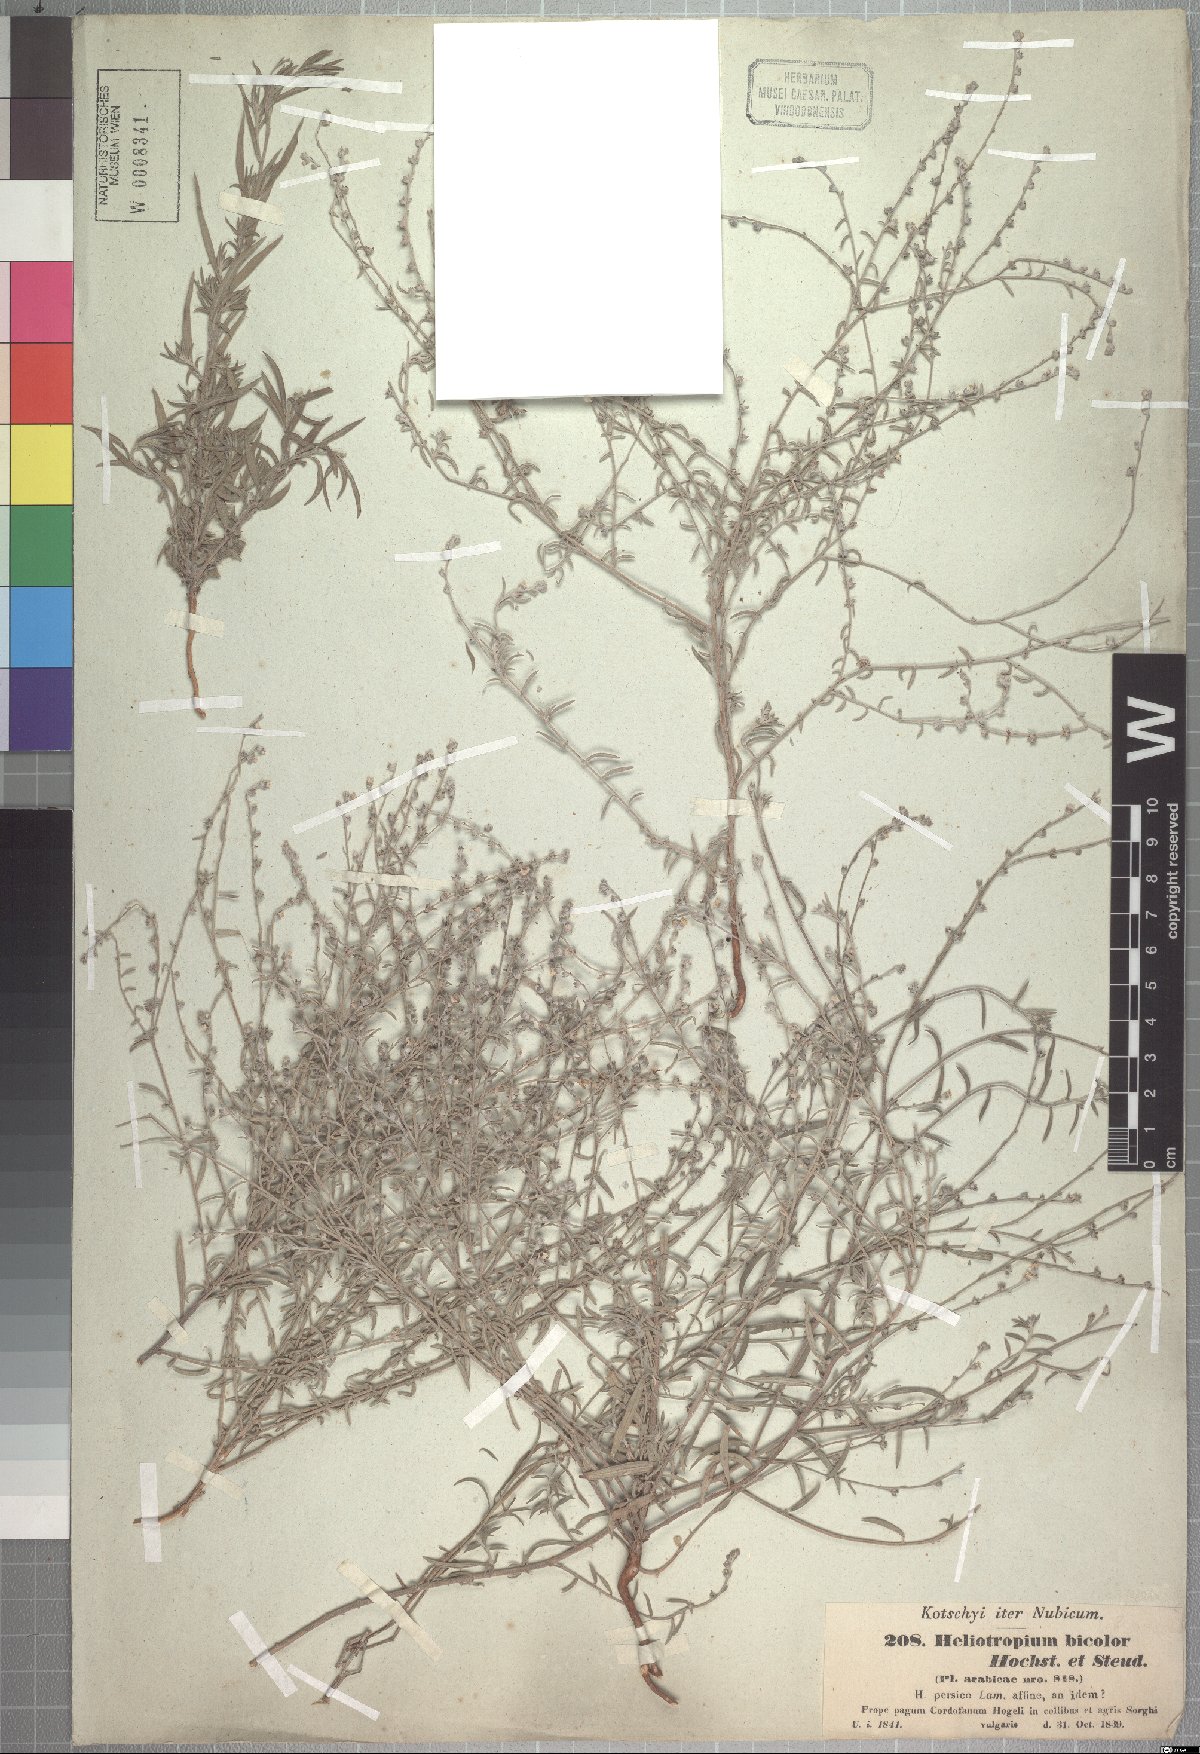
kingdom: Plantae
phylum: Tracheophyta
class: Magnoliopsida
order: Boraginales
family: Heliotropiaceae
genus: Euploca
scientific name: Euploca strigosa
